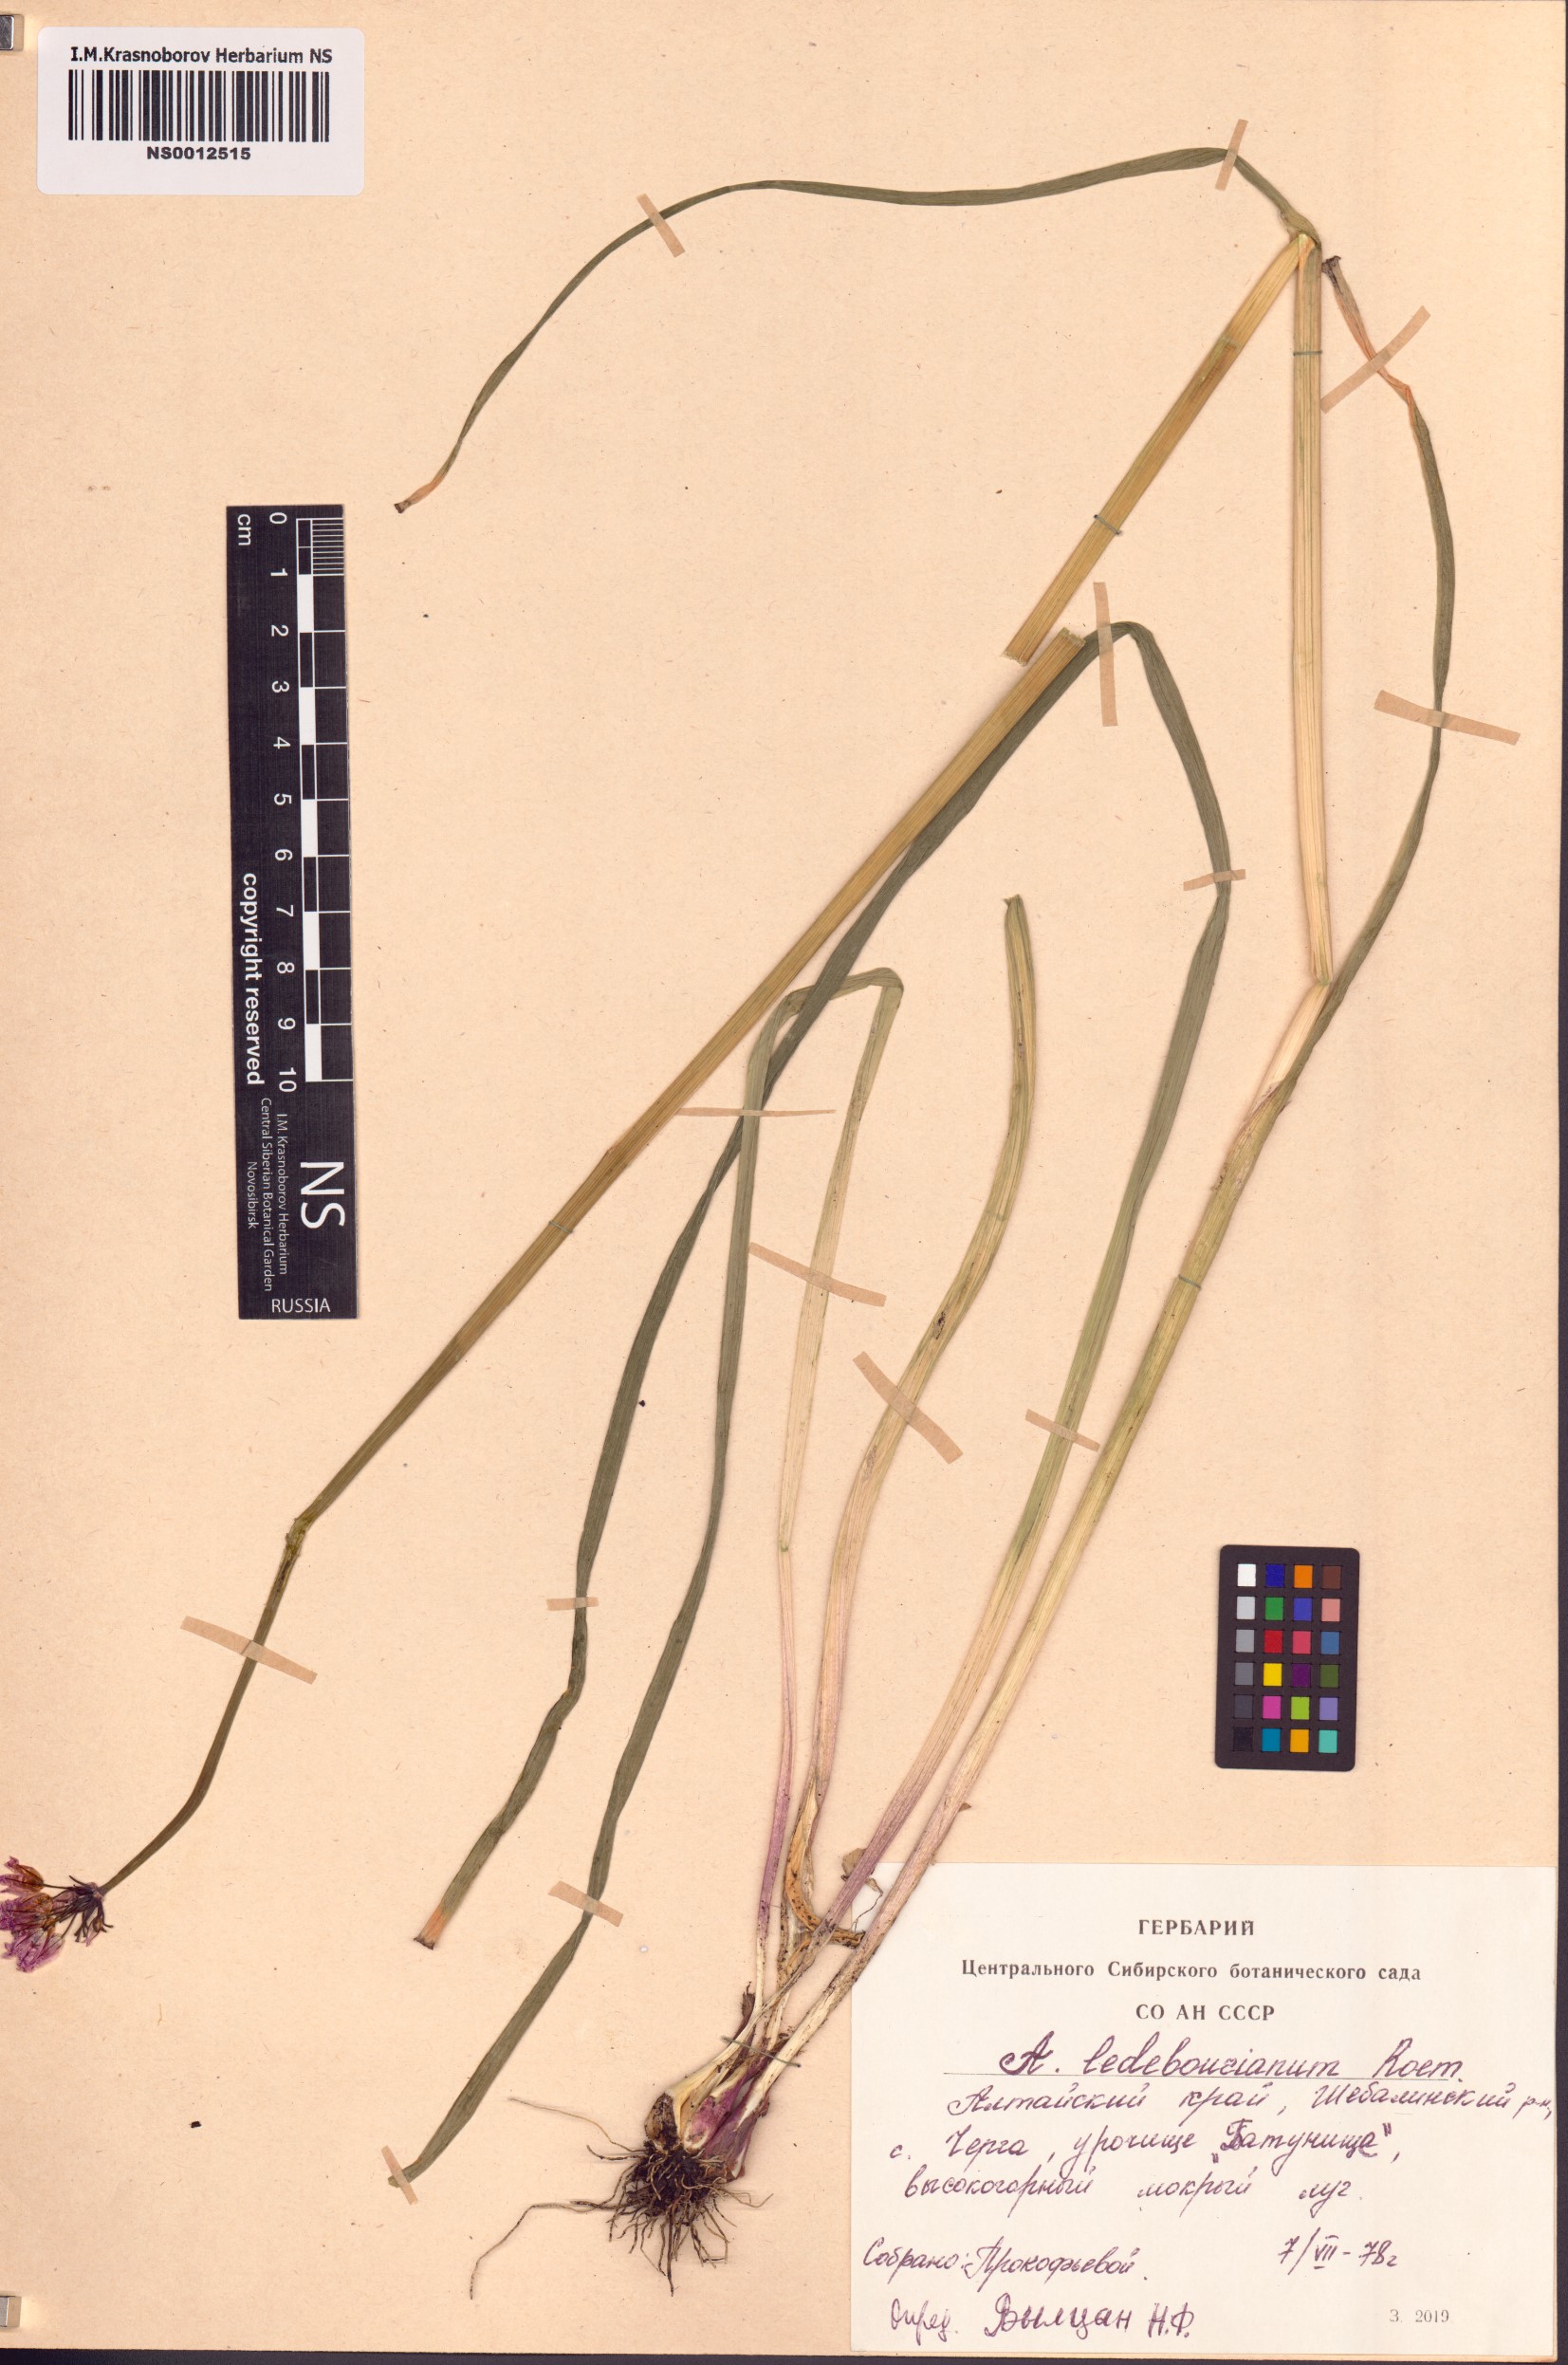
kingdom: Plantae
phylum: Tracheophyta
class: Liliopsida
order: Asparagales
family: Amaryllidaceae
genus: Allium
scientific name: Allium ledebourianum
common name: Ledebour chive
